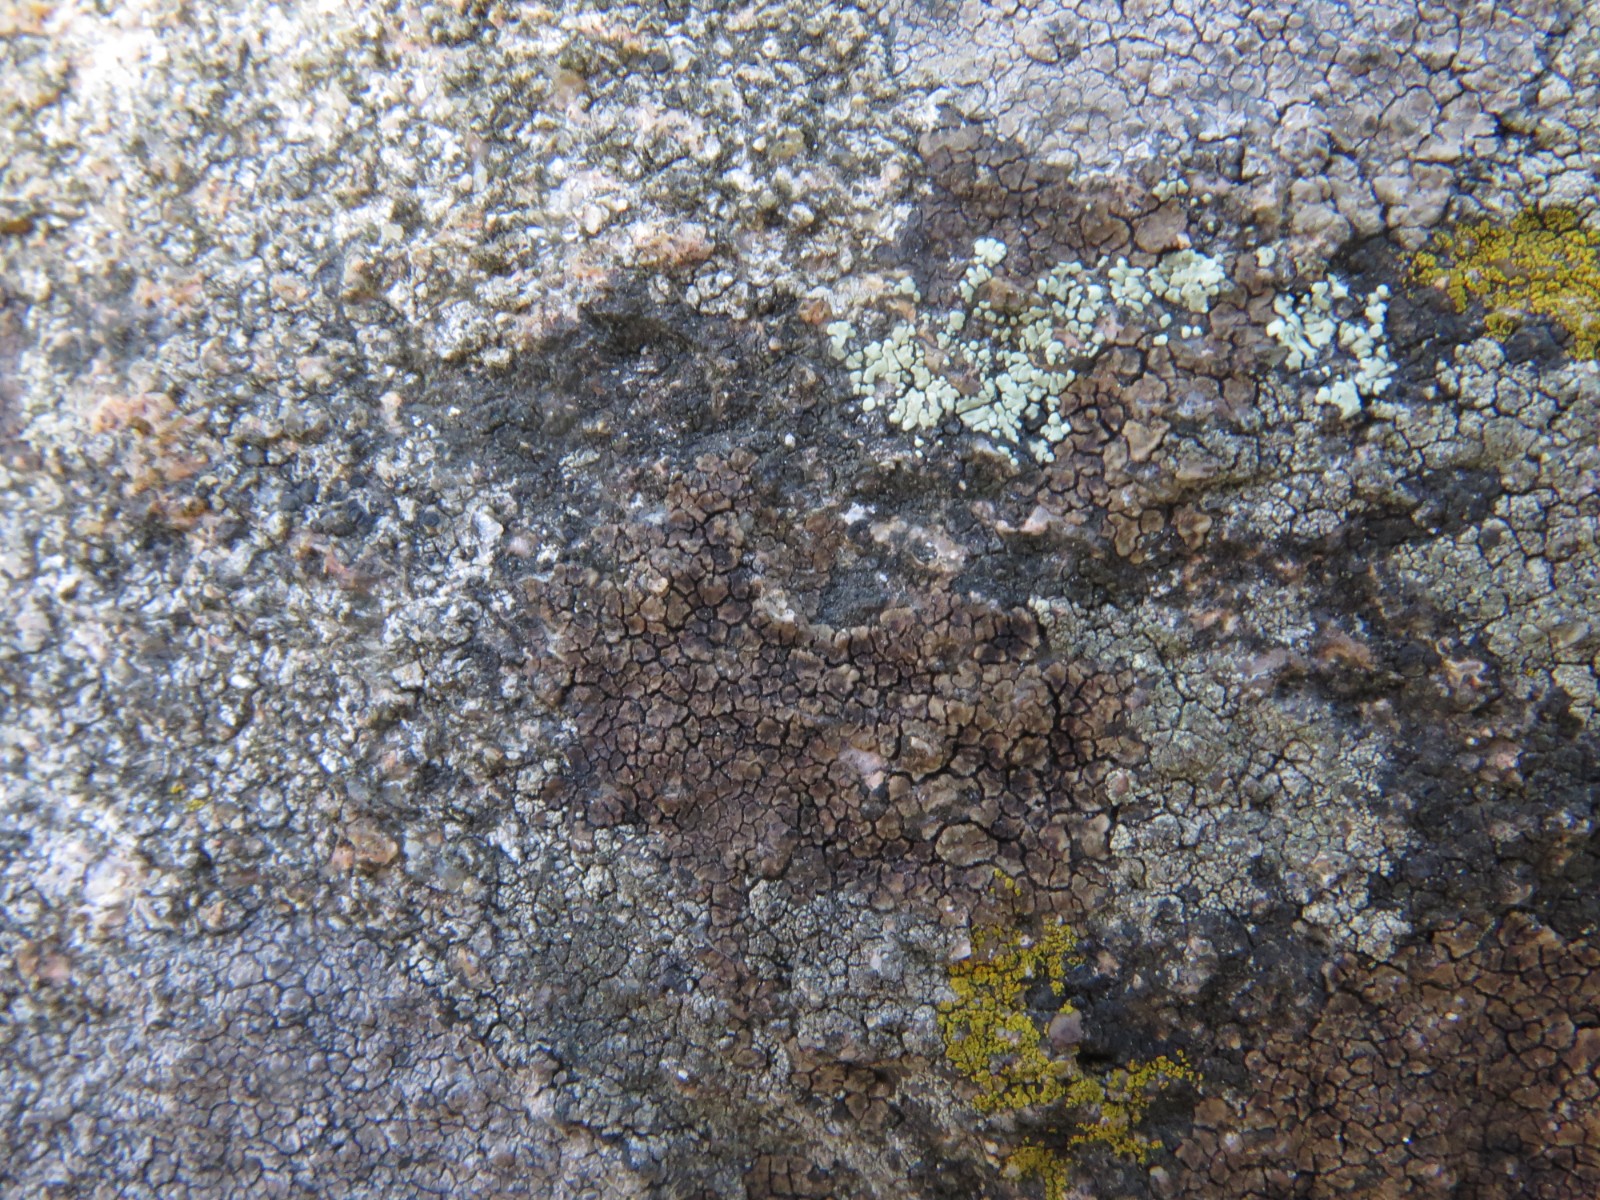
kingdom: Fungi
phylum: Ascomycota
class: Lecanoromycetes
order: Acarosporales
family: Acarosporaceae
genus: Acarospora
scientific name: Acarospora fuscata
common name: brun småsporelav
